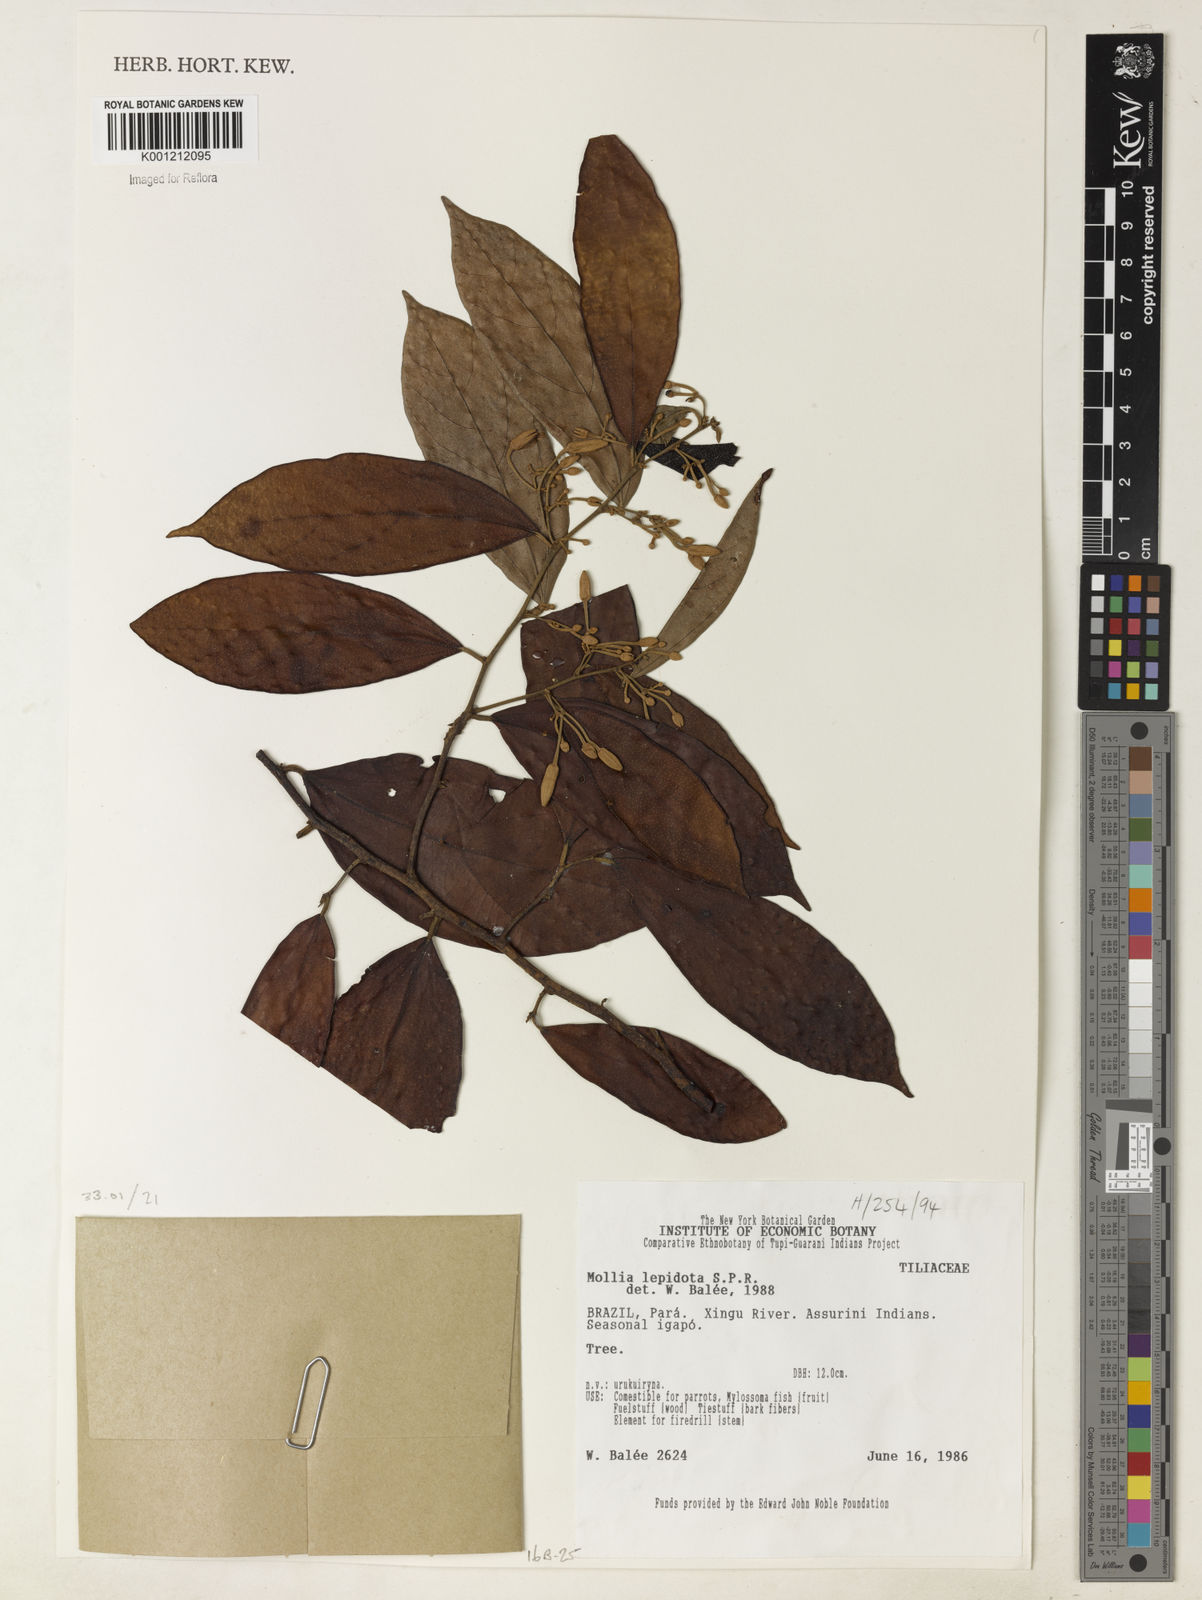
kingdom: Plantae
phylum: Tracheophyta
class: Magnoliopsida
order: Malvales
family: Malvaceae
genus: Mollia
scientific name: Mollia lepidota
